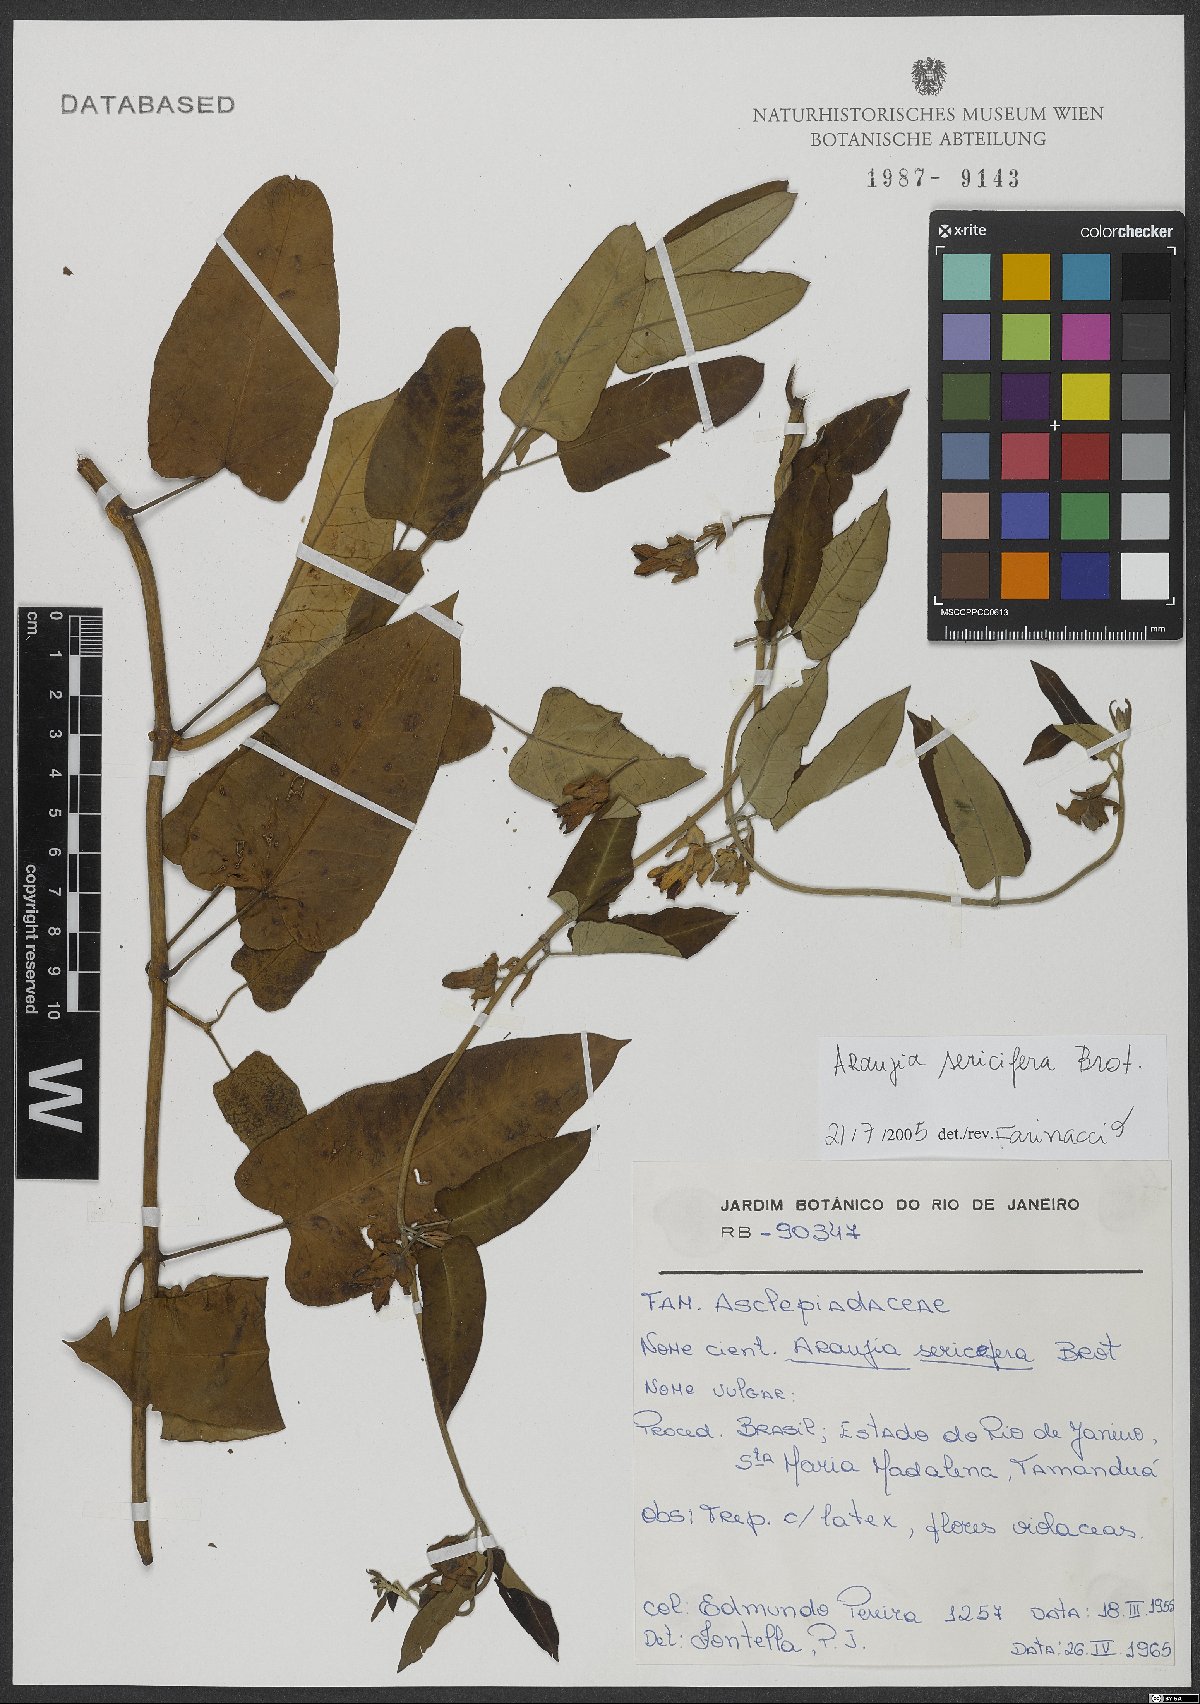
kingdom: Plantae
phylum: Tracheophyta
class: Magnoliopsida
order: Gentianales
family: Apocynaceae
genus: Araujia
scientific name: Araujia sericifera
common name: White bladderflower
